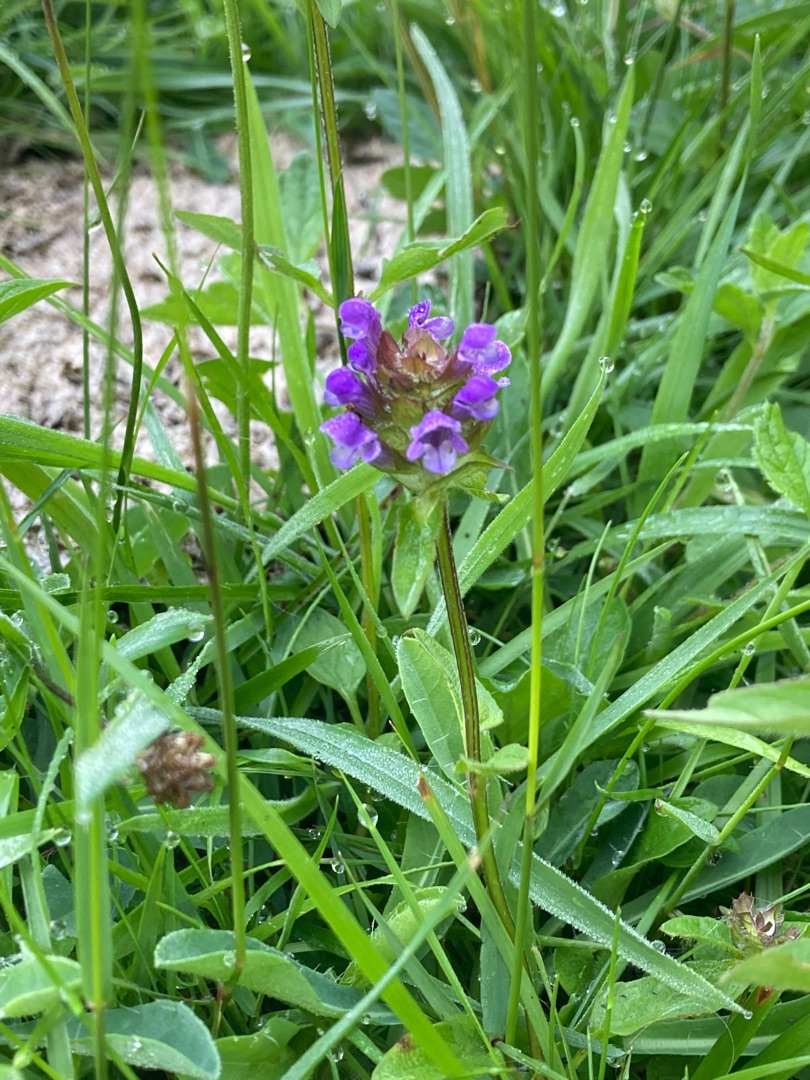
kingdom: Plantae
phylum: Tracheophyta
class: Magnoliopsida
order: Lamiales
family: Lamiaceae
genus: Prunella
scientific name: Prunella vulgaris
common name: Almindelig brunelle
